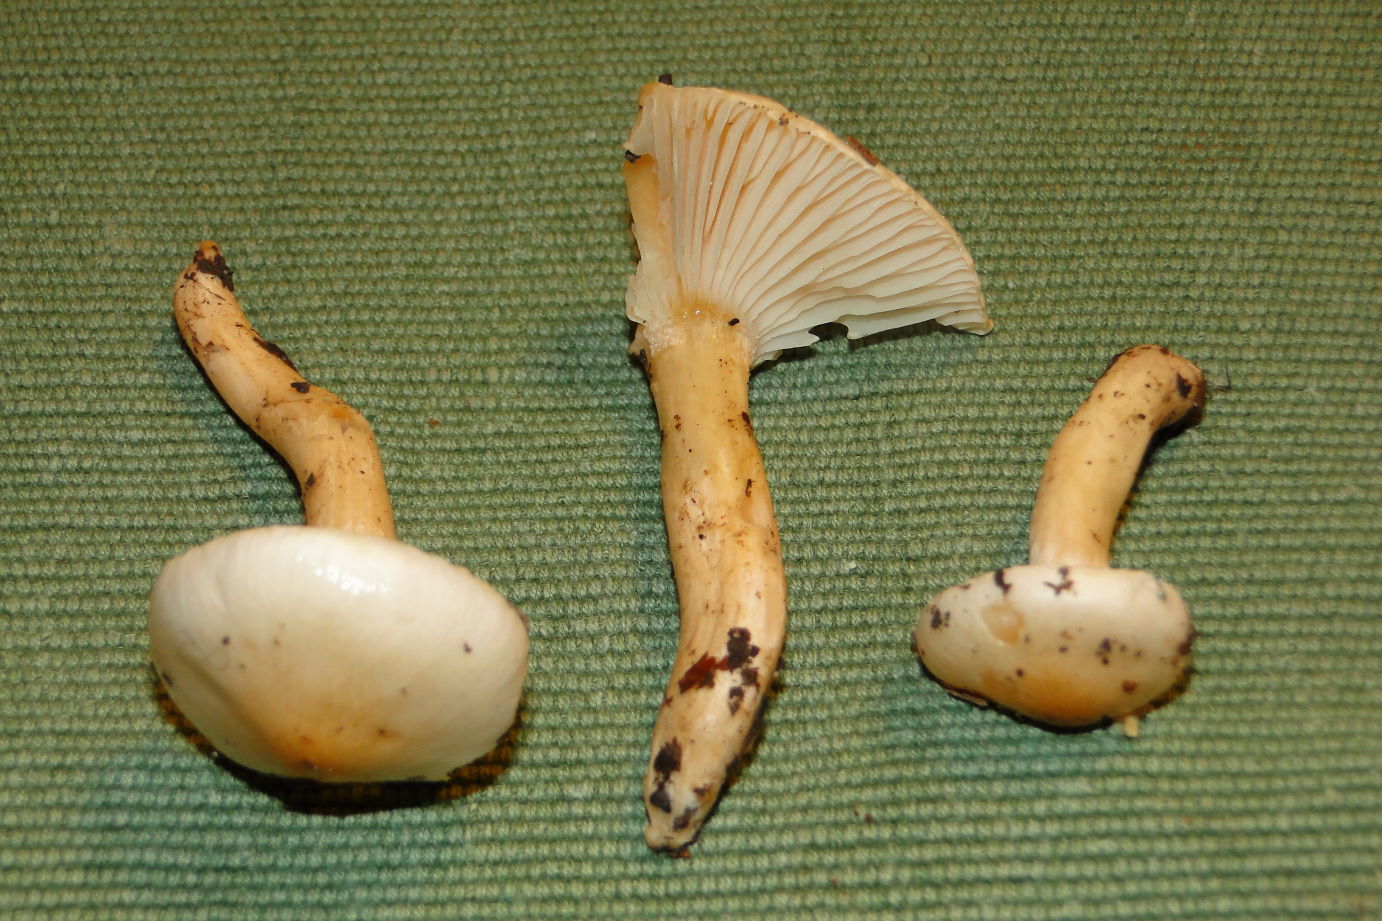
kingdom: Fungi
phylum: Basidiomycota
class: Agaricomycetes
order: Agaricales
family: Hygrophoraceae
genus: Hygrophorus
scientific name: Hygrophorus unicolor
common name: orangeøjet sneglehat
